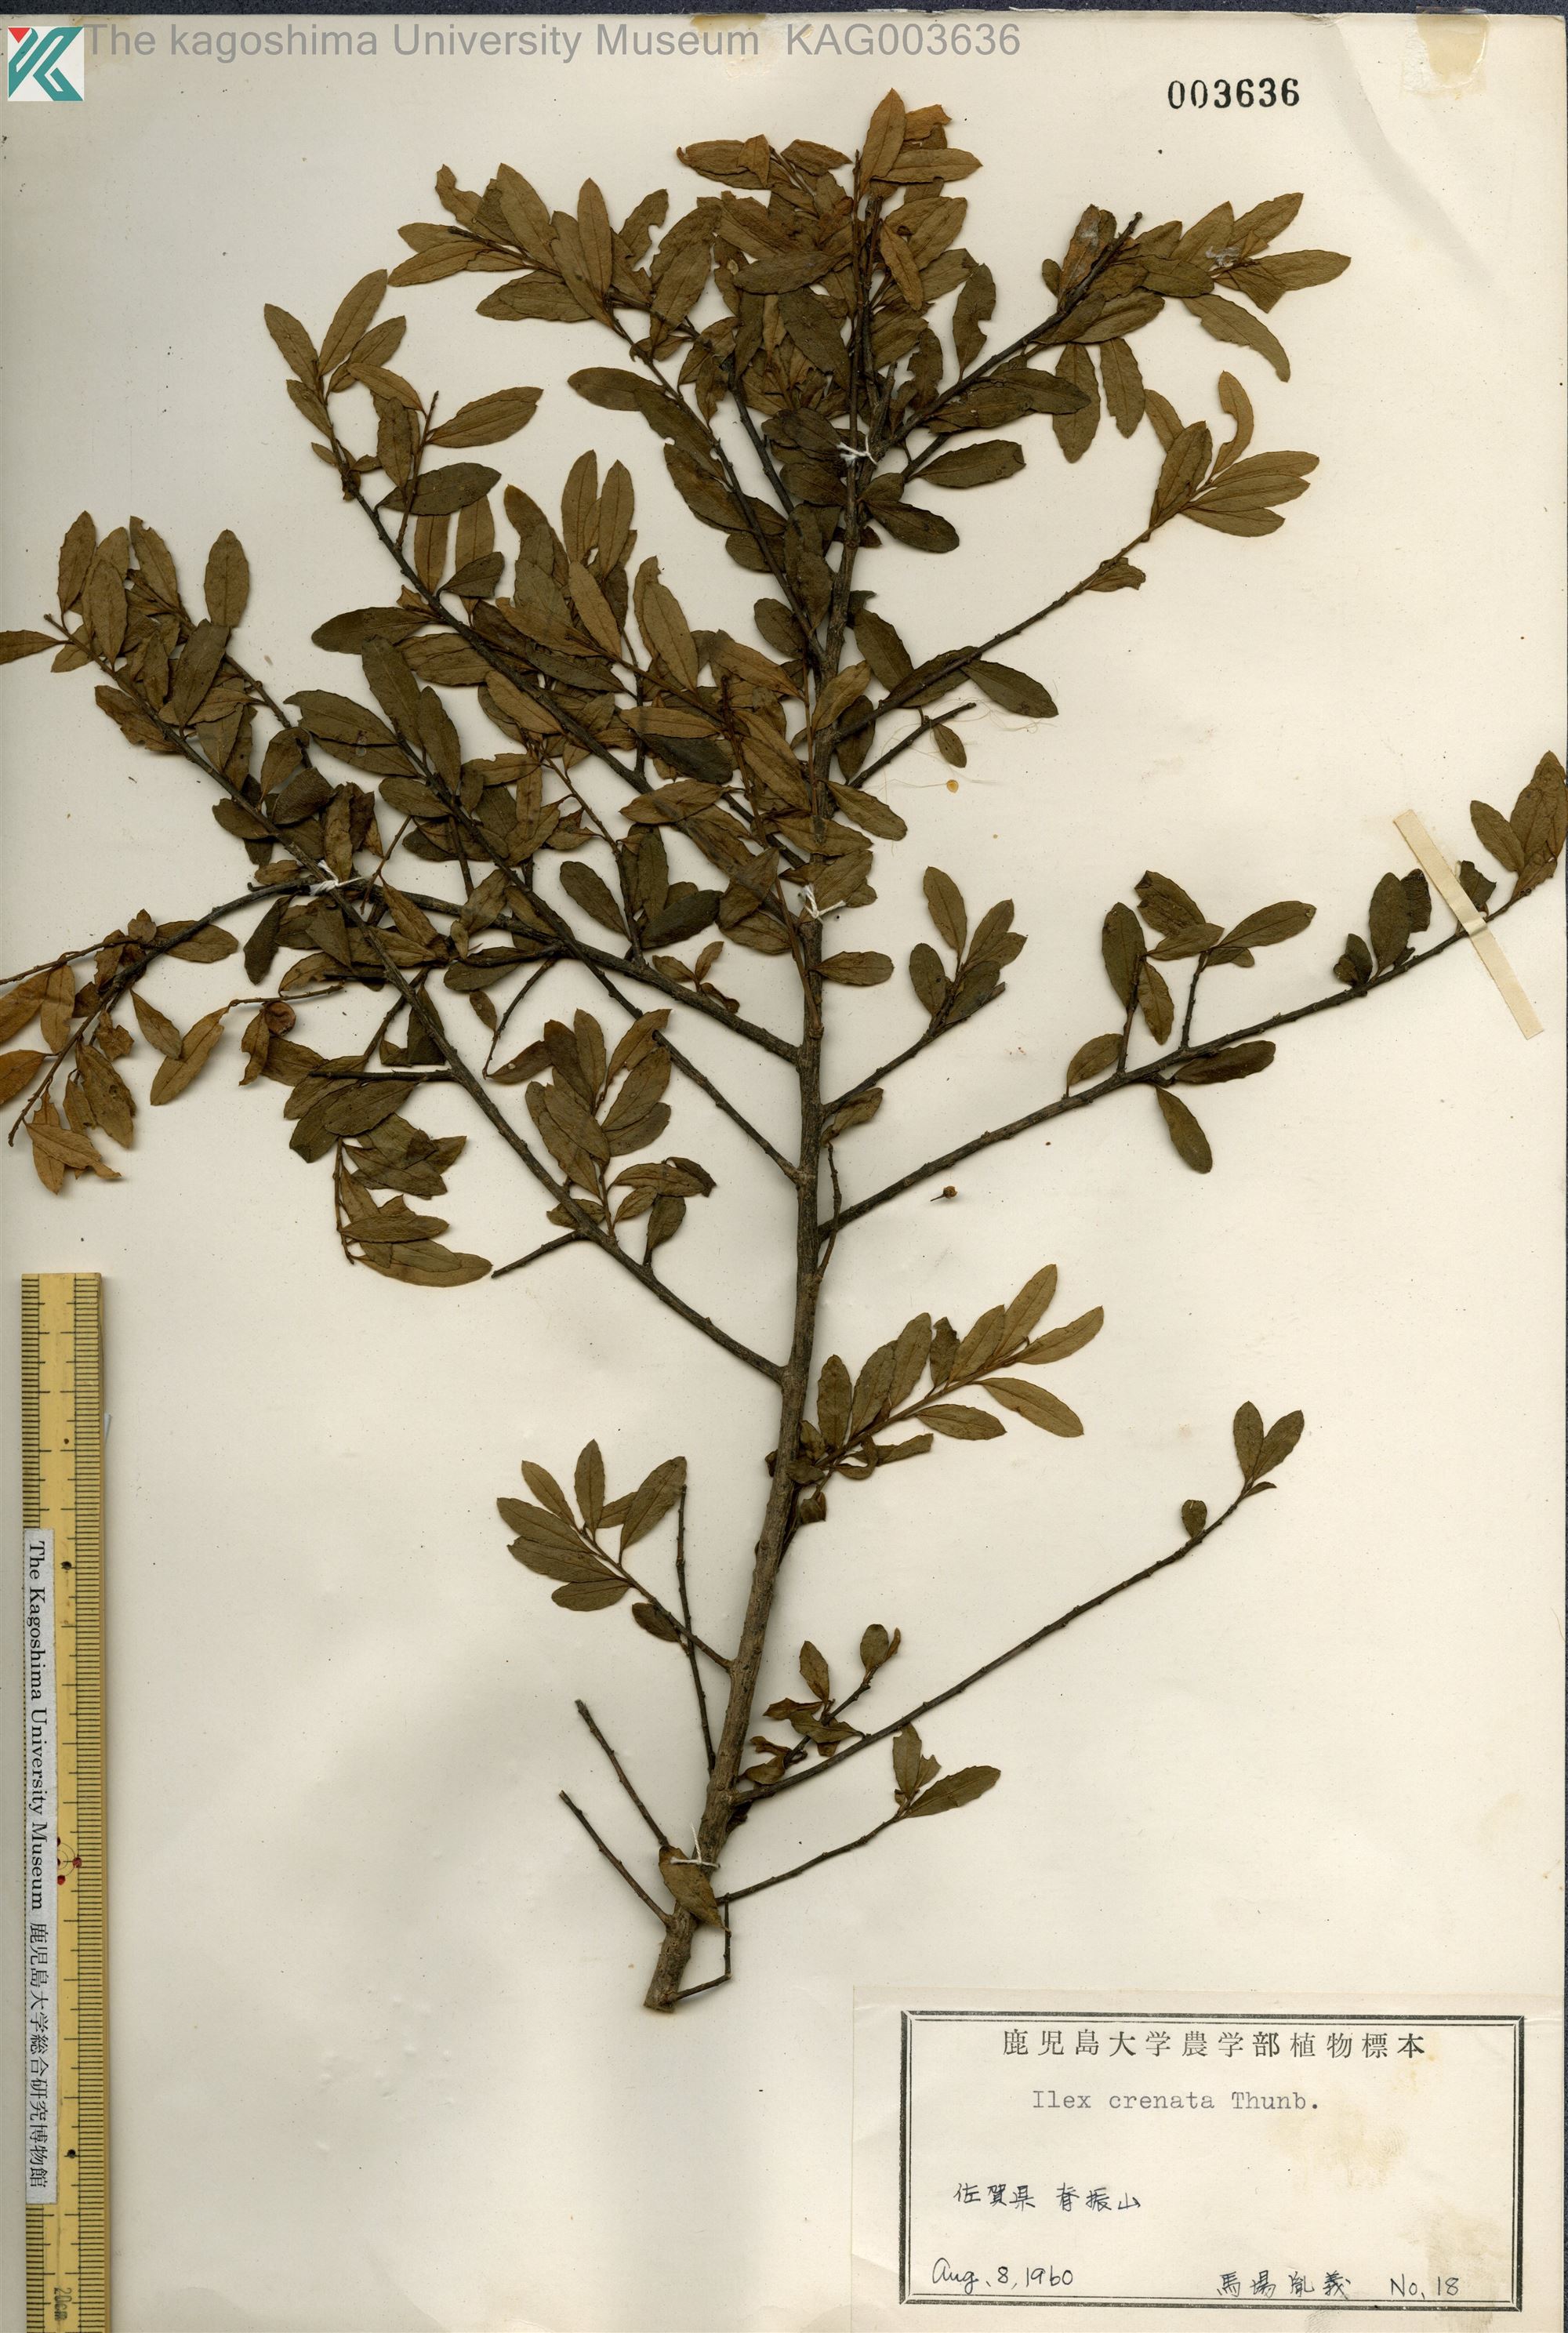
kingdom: Plantae
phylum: Tracheophyta
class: Magnoliopsida
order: Aquifoliales
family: Aquifoliaceae
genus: Ilex
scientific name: Ilex crenata
